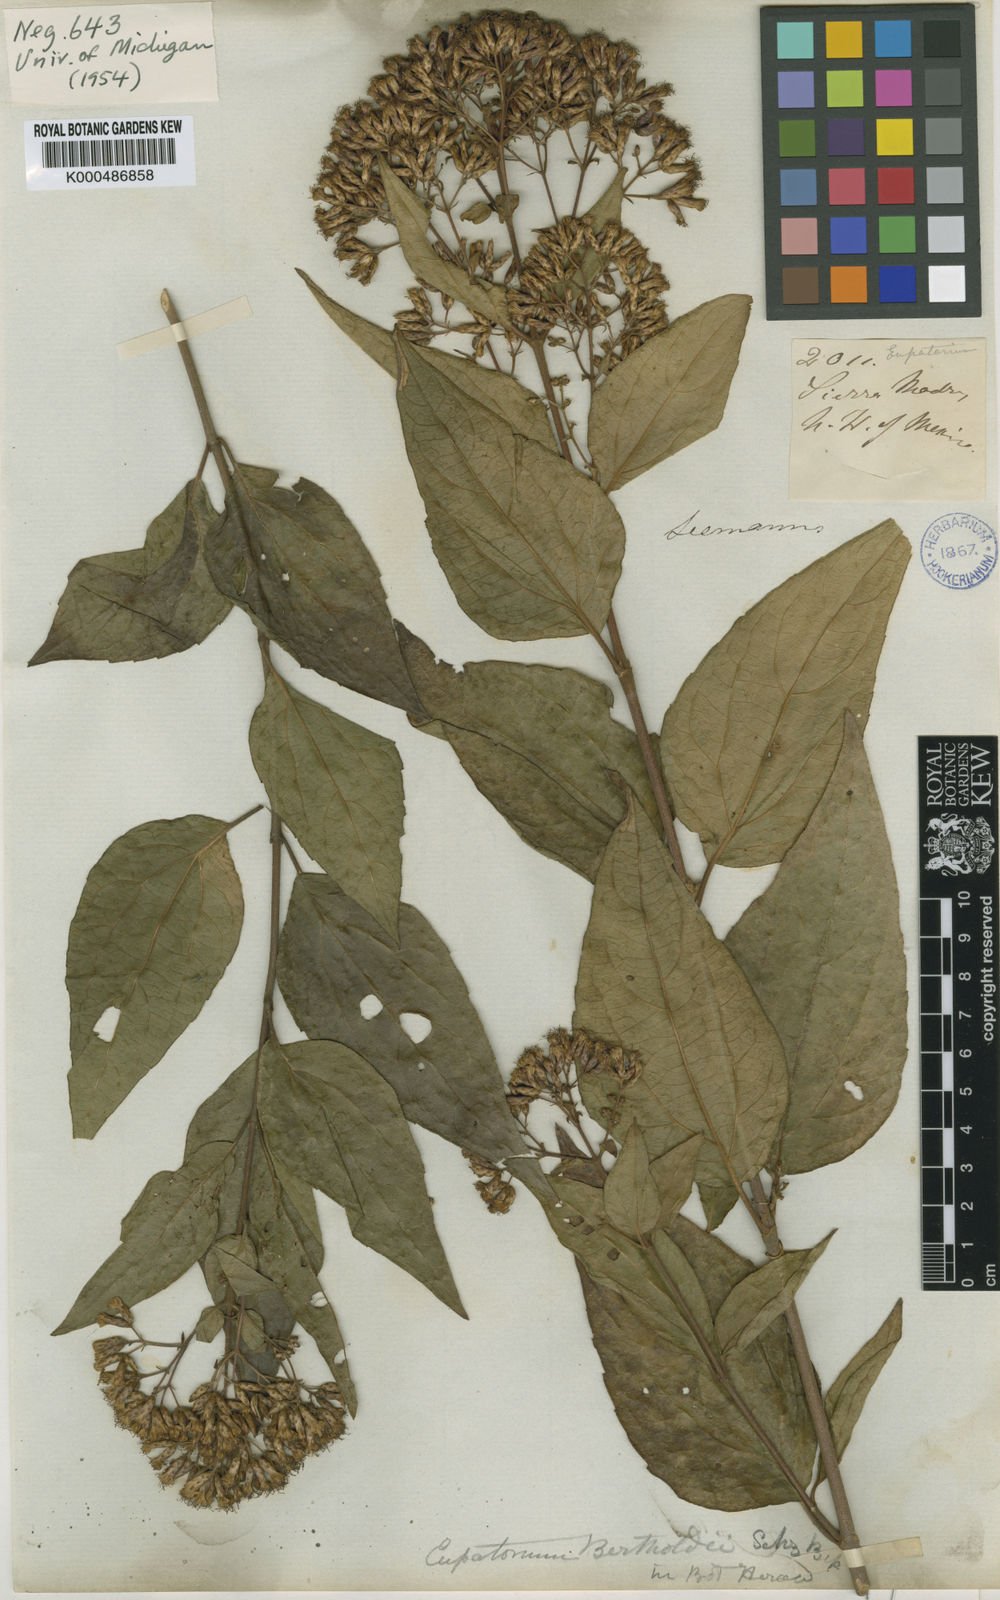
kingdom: Plantae
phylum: Tracheophyta
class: Magnoliopsida
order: Asterales
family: Asteraceae
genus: Chromolaena
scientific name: Chromolaena ovaliflora
